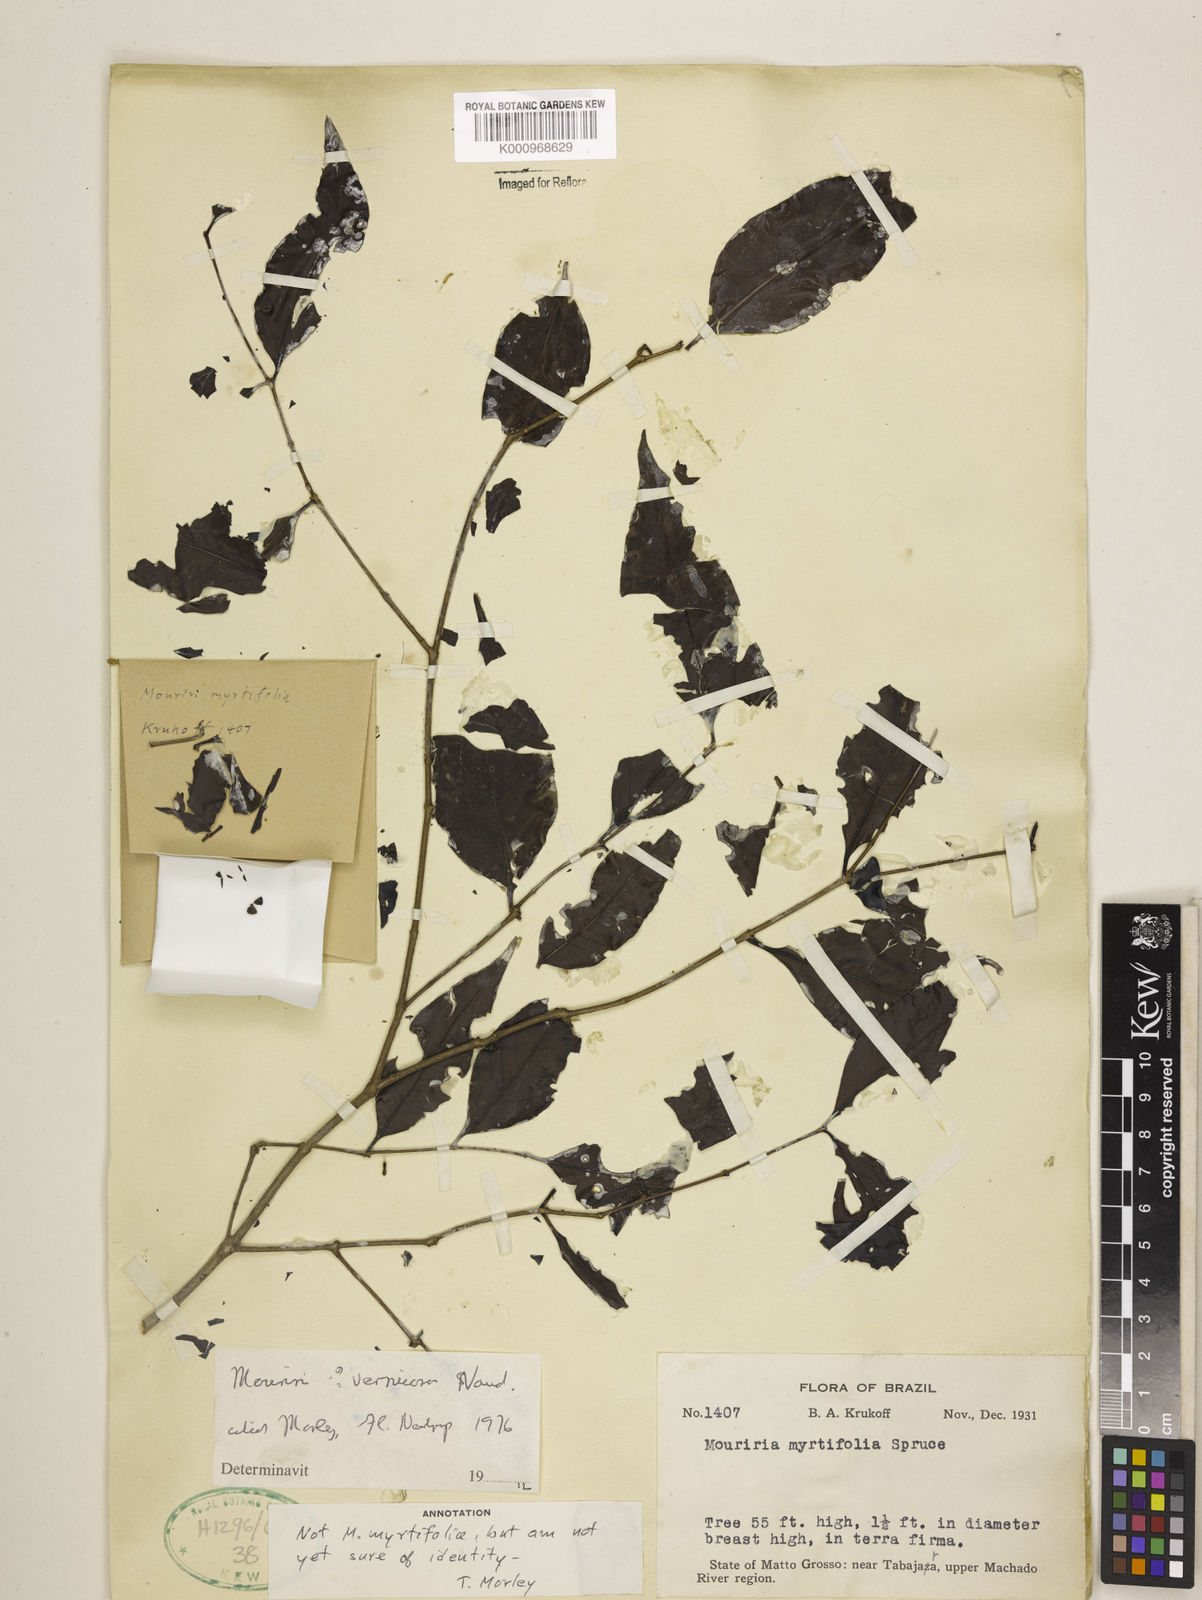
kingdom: Plantae
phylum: Tracheophyta
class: Magnoliopsida
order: Myrtales
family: Melastomataceae
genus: Mouriri
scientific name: Mouriri vernicosa
